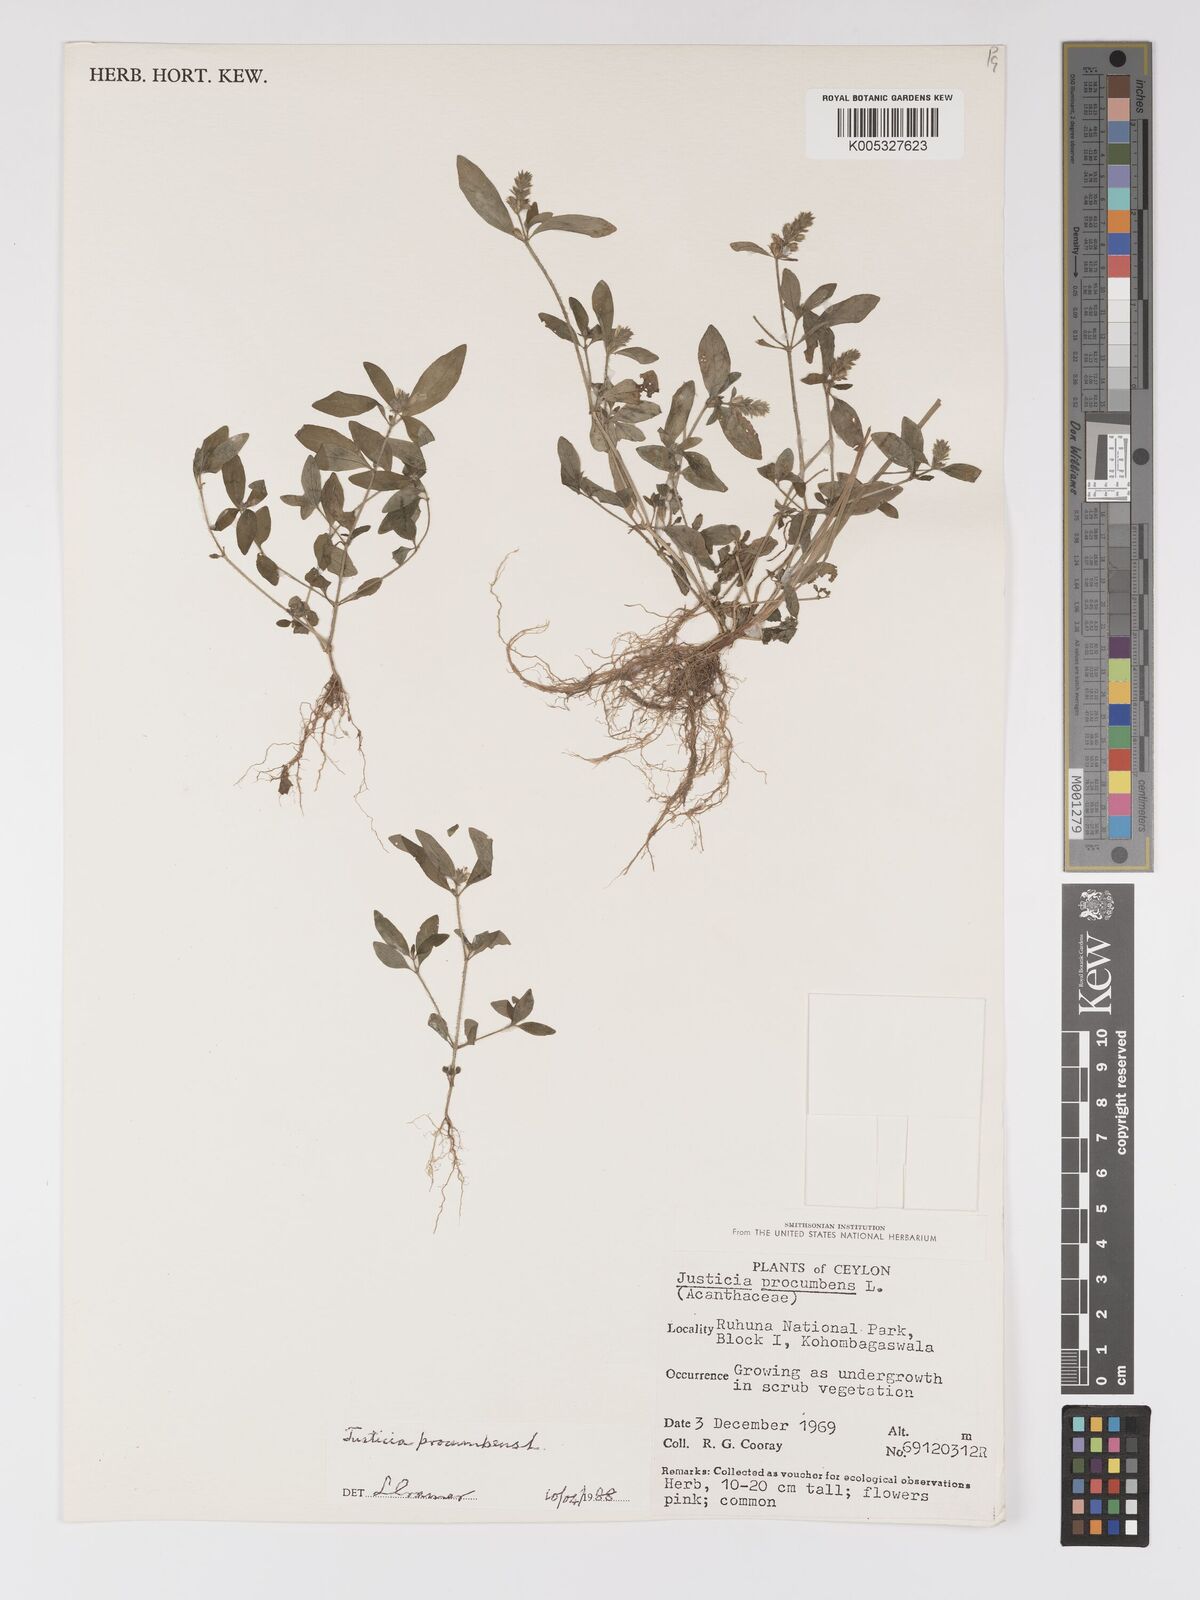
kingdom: Plantae
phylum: Tracheophyta
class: Magnoliopsida
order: Lamiales
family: Acanthaceae
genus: Rostellularia
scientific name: Rostellularia procumbens
